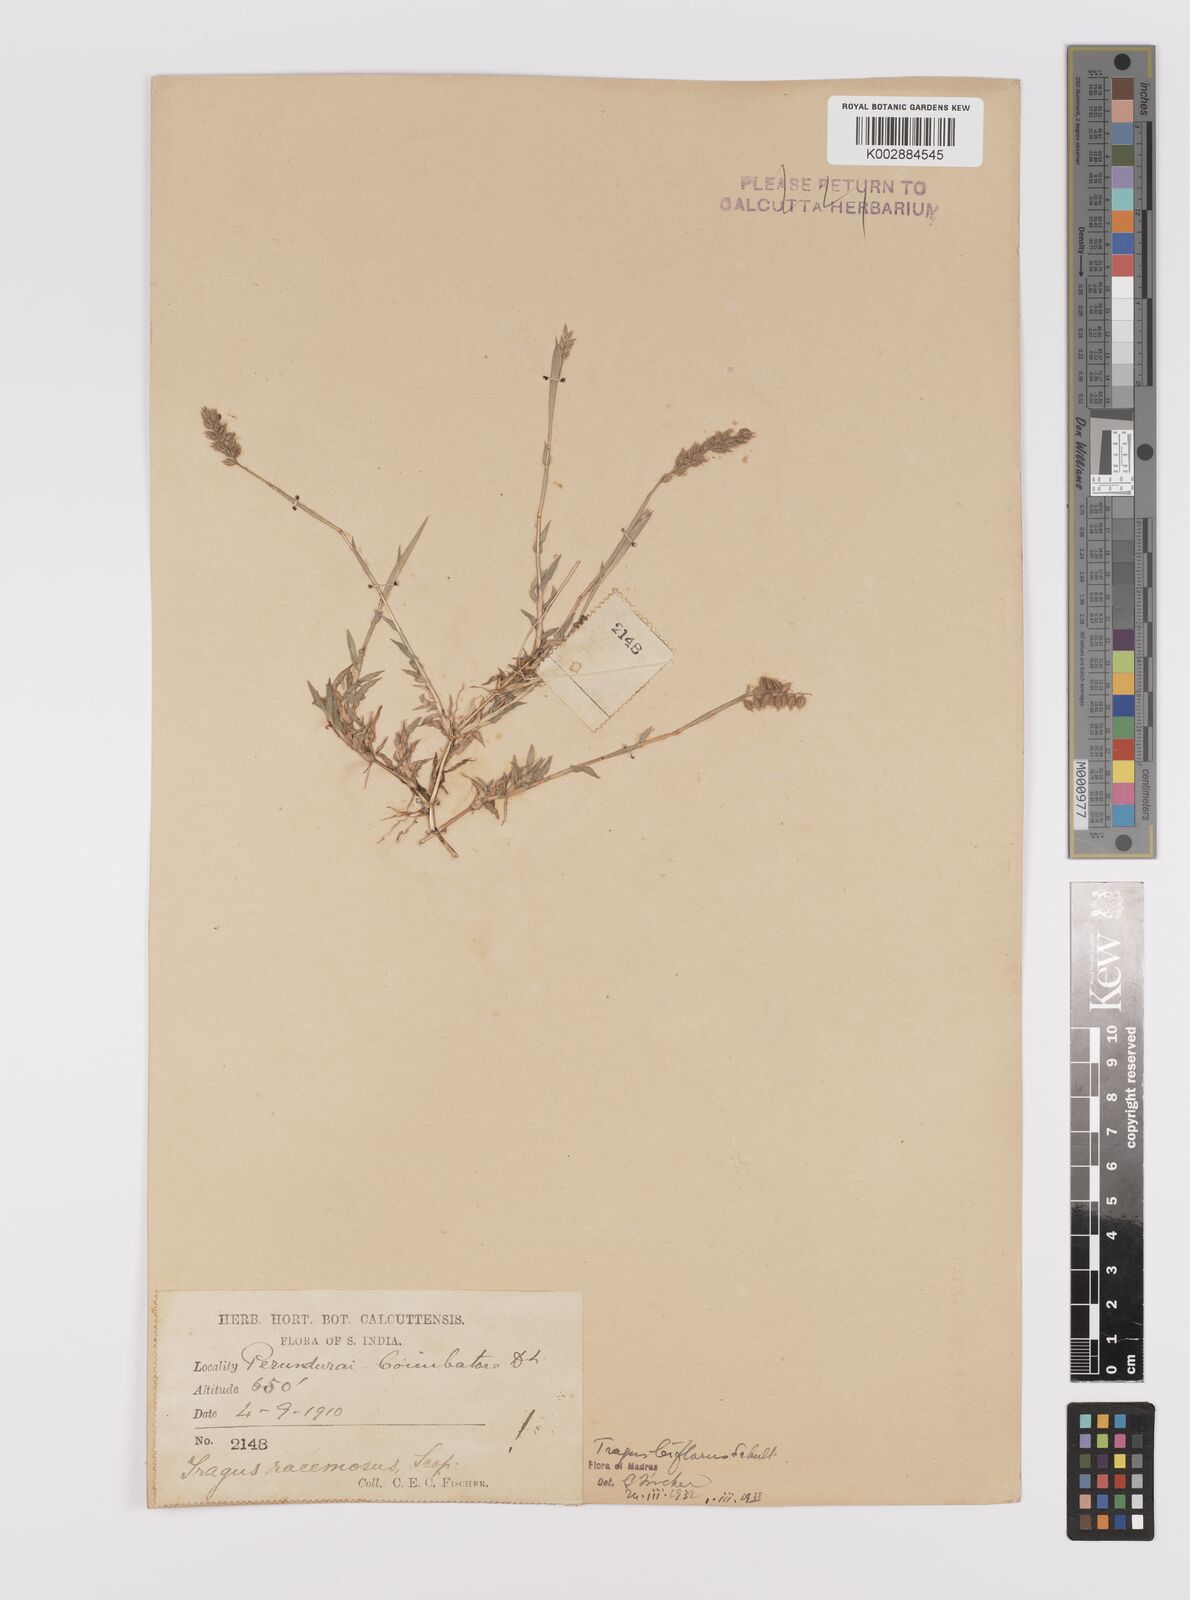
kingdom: Plantae
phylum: Tracheophyta
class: Liliopsida
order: Poales
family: Poaceae
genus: Tragus
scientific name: Tragus mongolorum
